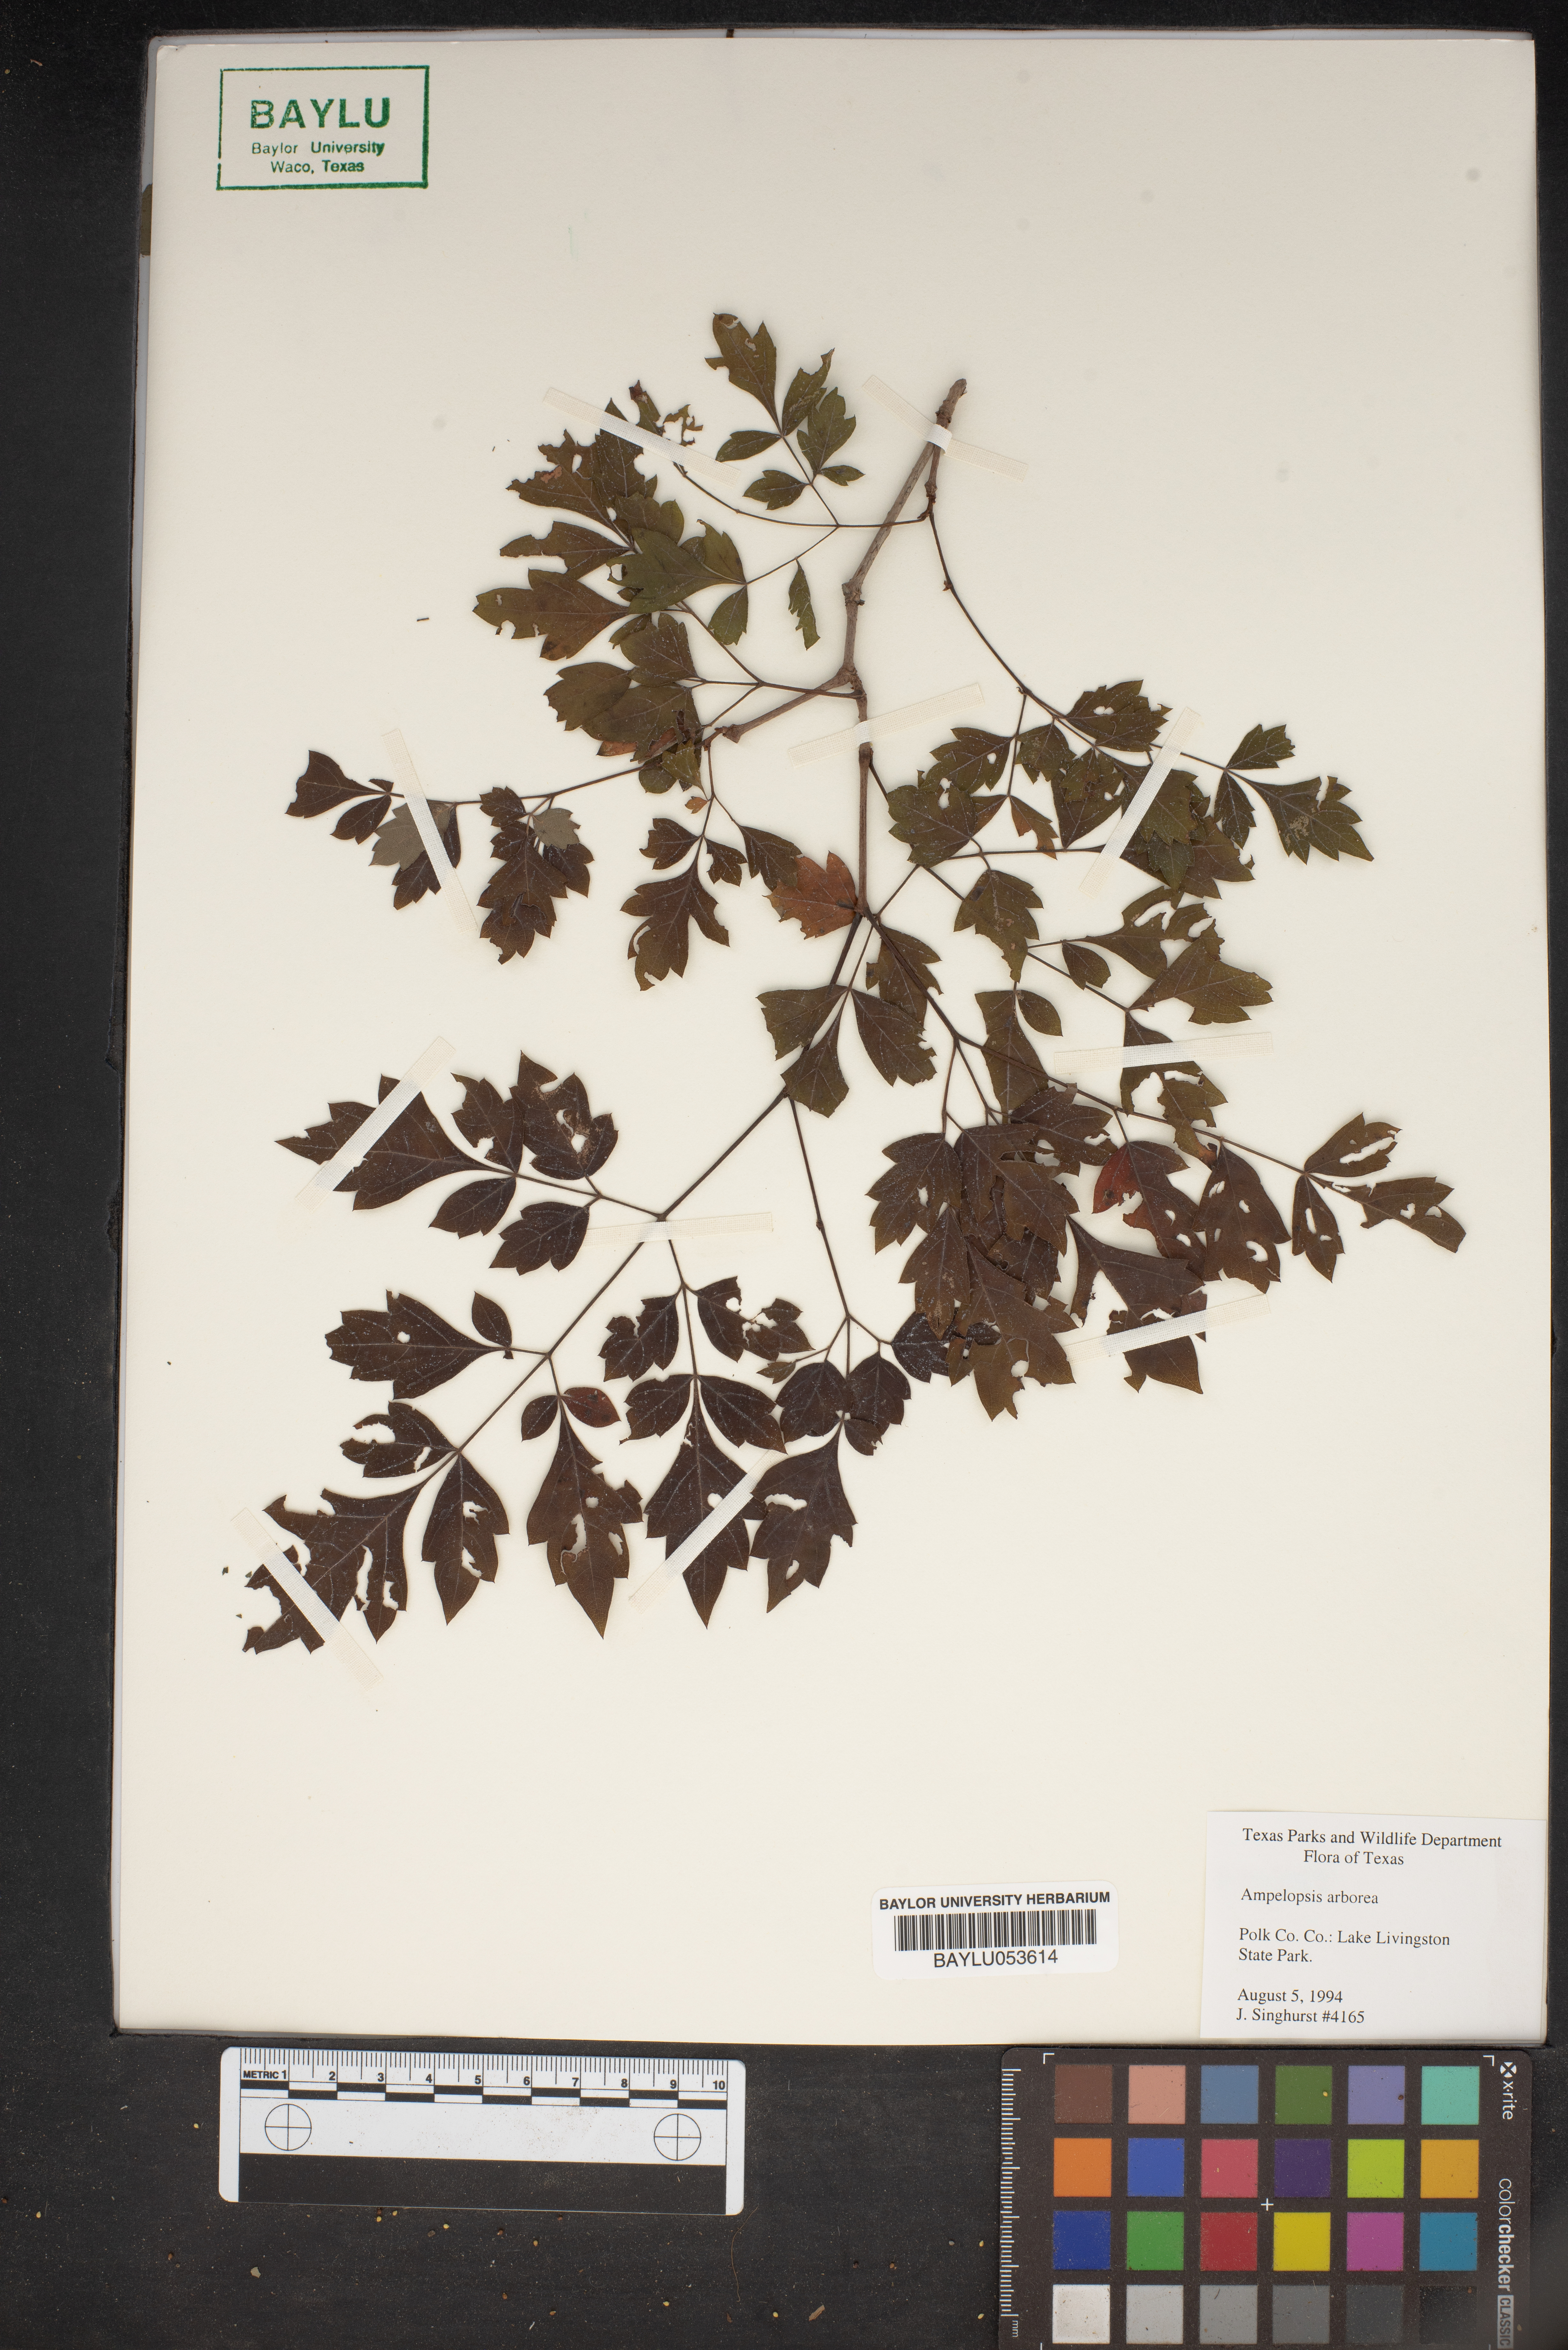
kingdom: Plantae
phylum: Tracheophyta
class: Magnoliopsida
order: Vitales
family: Vitaceae
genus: Nekemias
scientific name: Nekemias arborea
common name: Peppervine
